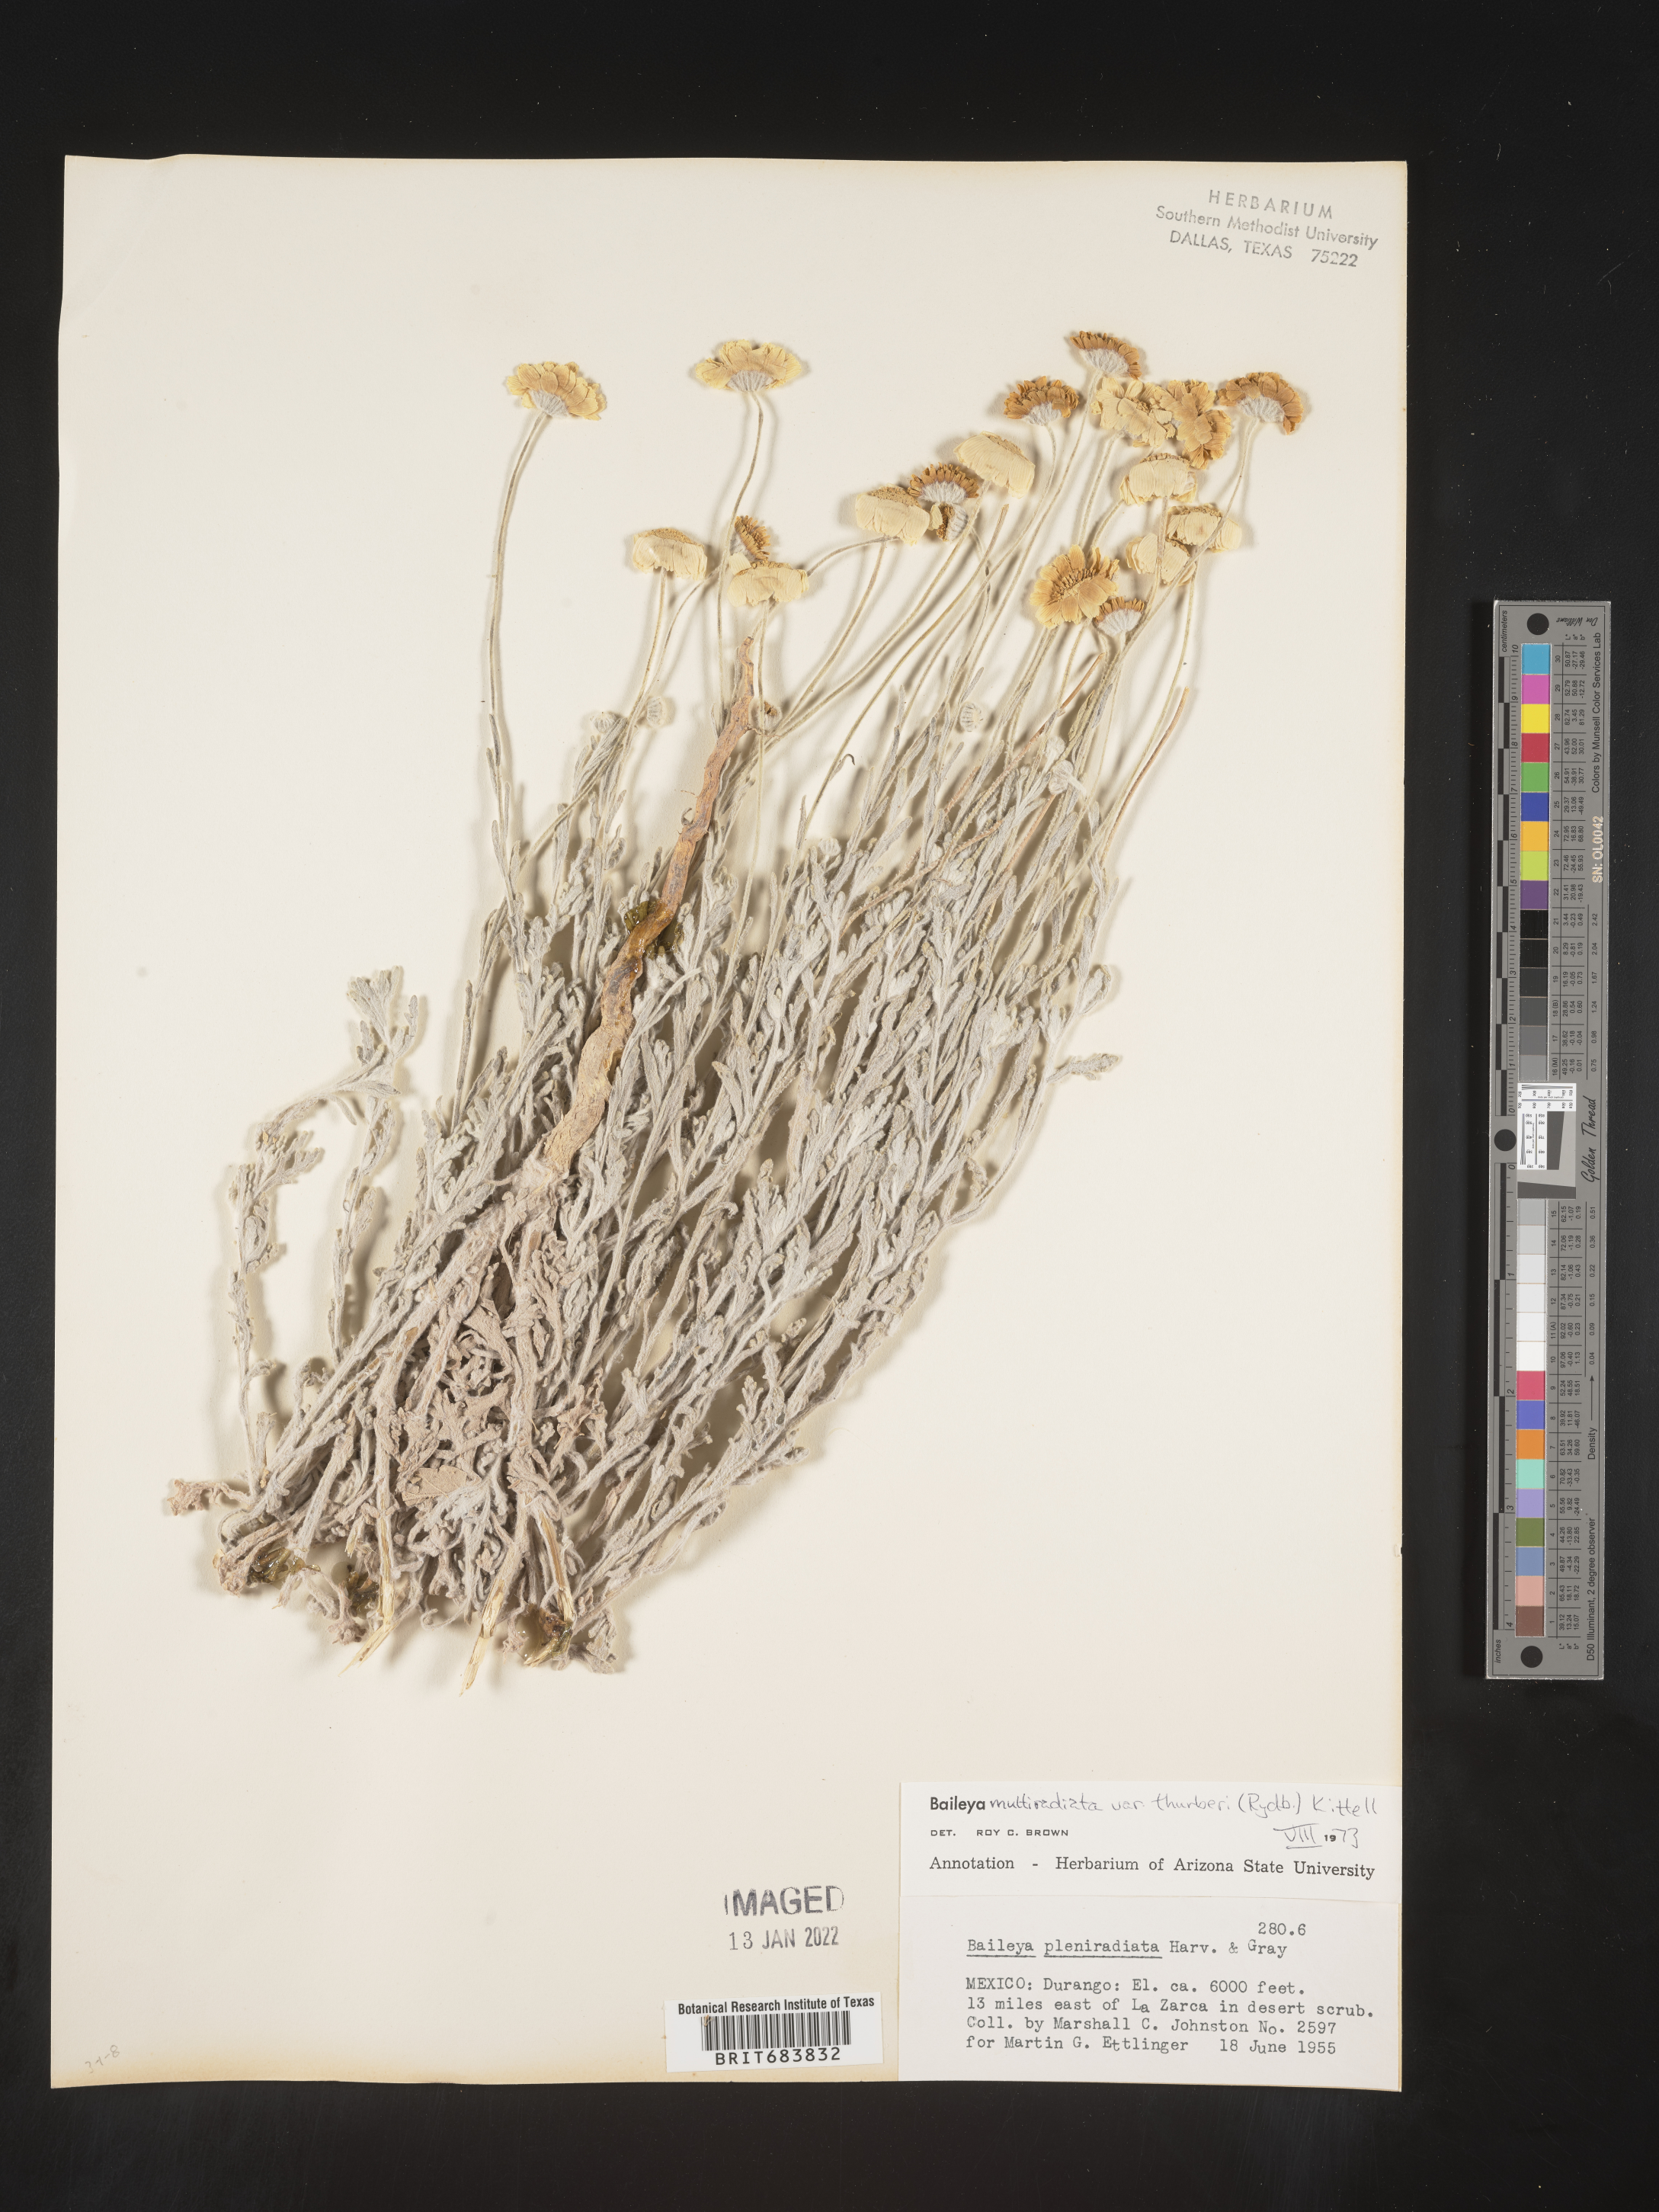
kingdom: Plantae
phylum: Tracheophyta
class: Magnoliopsida
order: Asterales
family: Asteraceae
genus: Baileya
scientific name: Baileya
